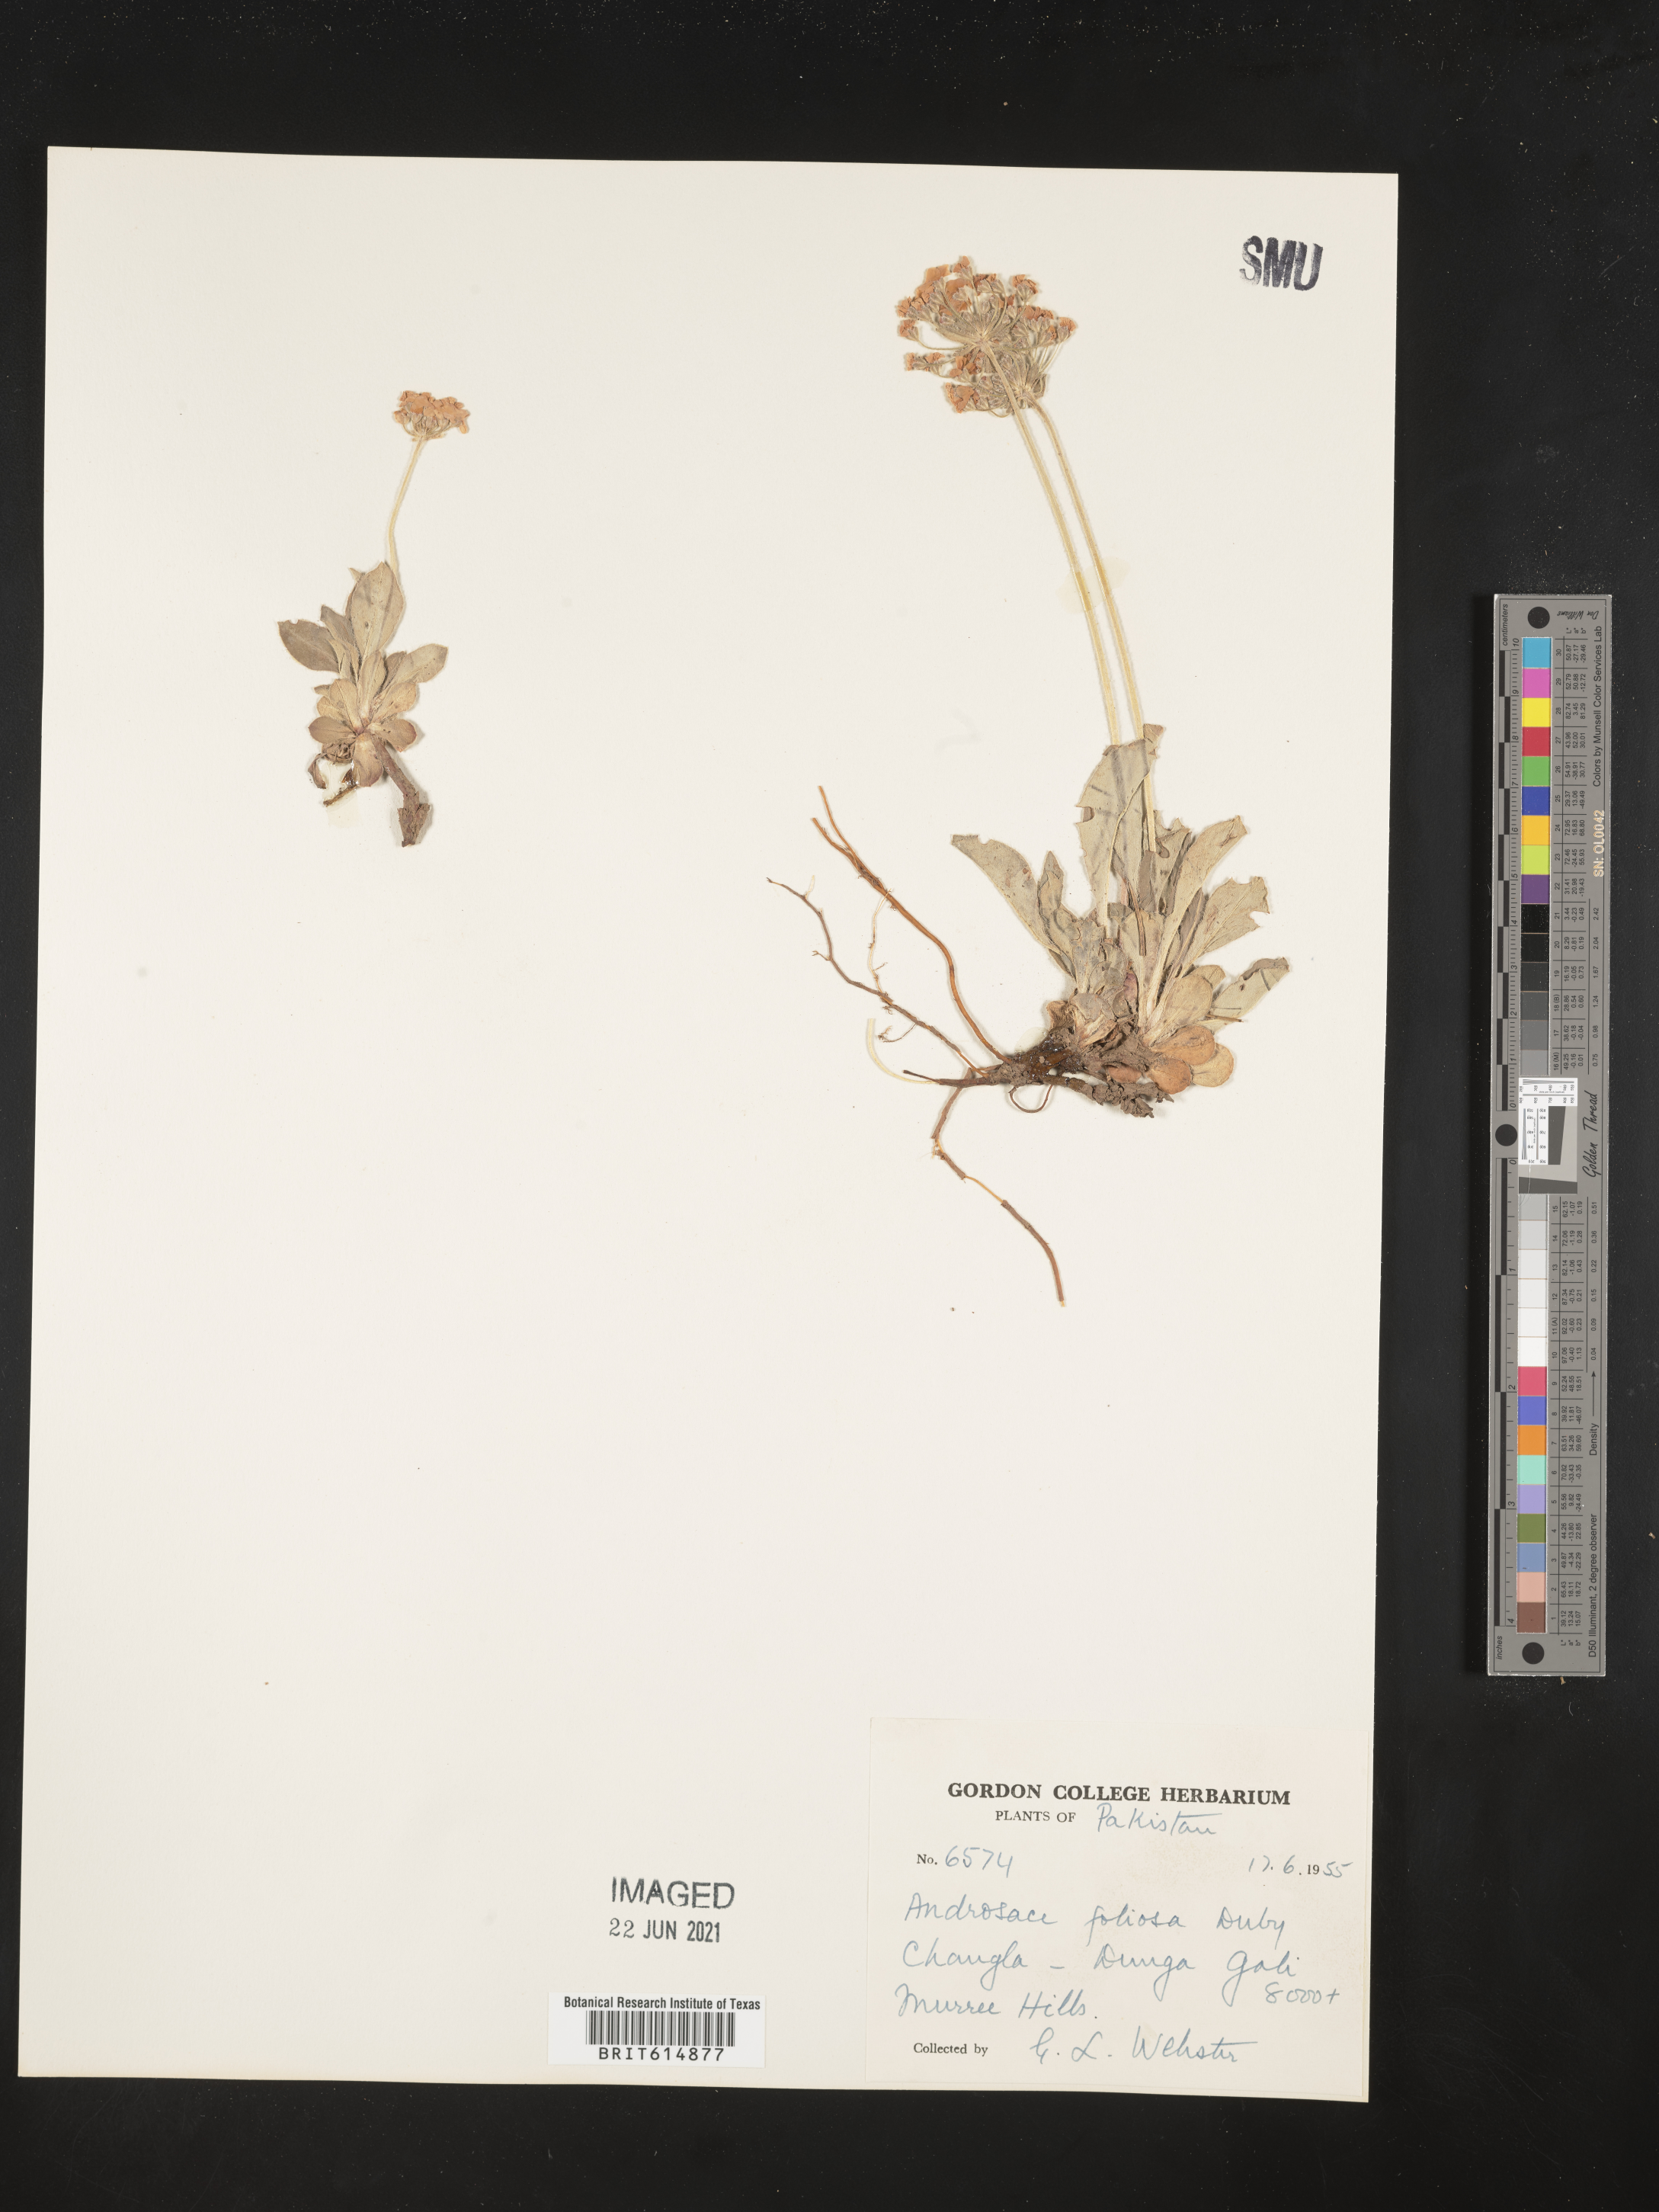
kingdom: Plantae
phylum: Tracheophyta
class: Magnoliopsida
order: Ericales
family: Primulaceae
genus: Androsace
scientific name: Androsace foliosa
